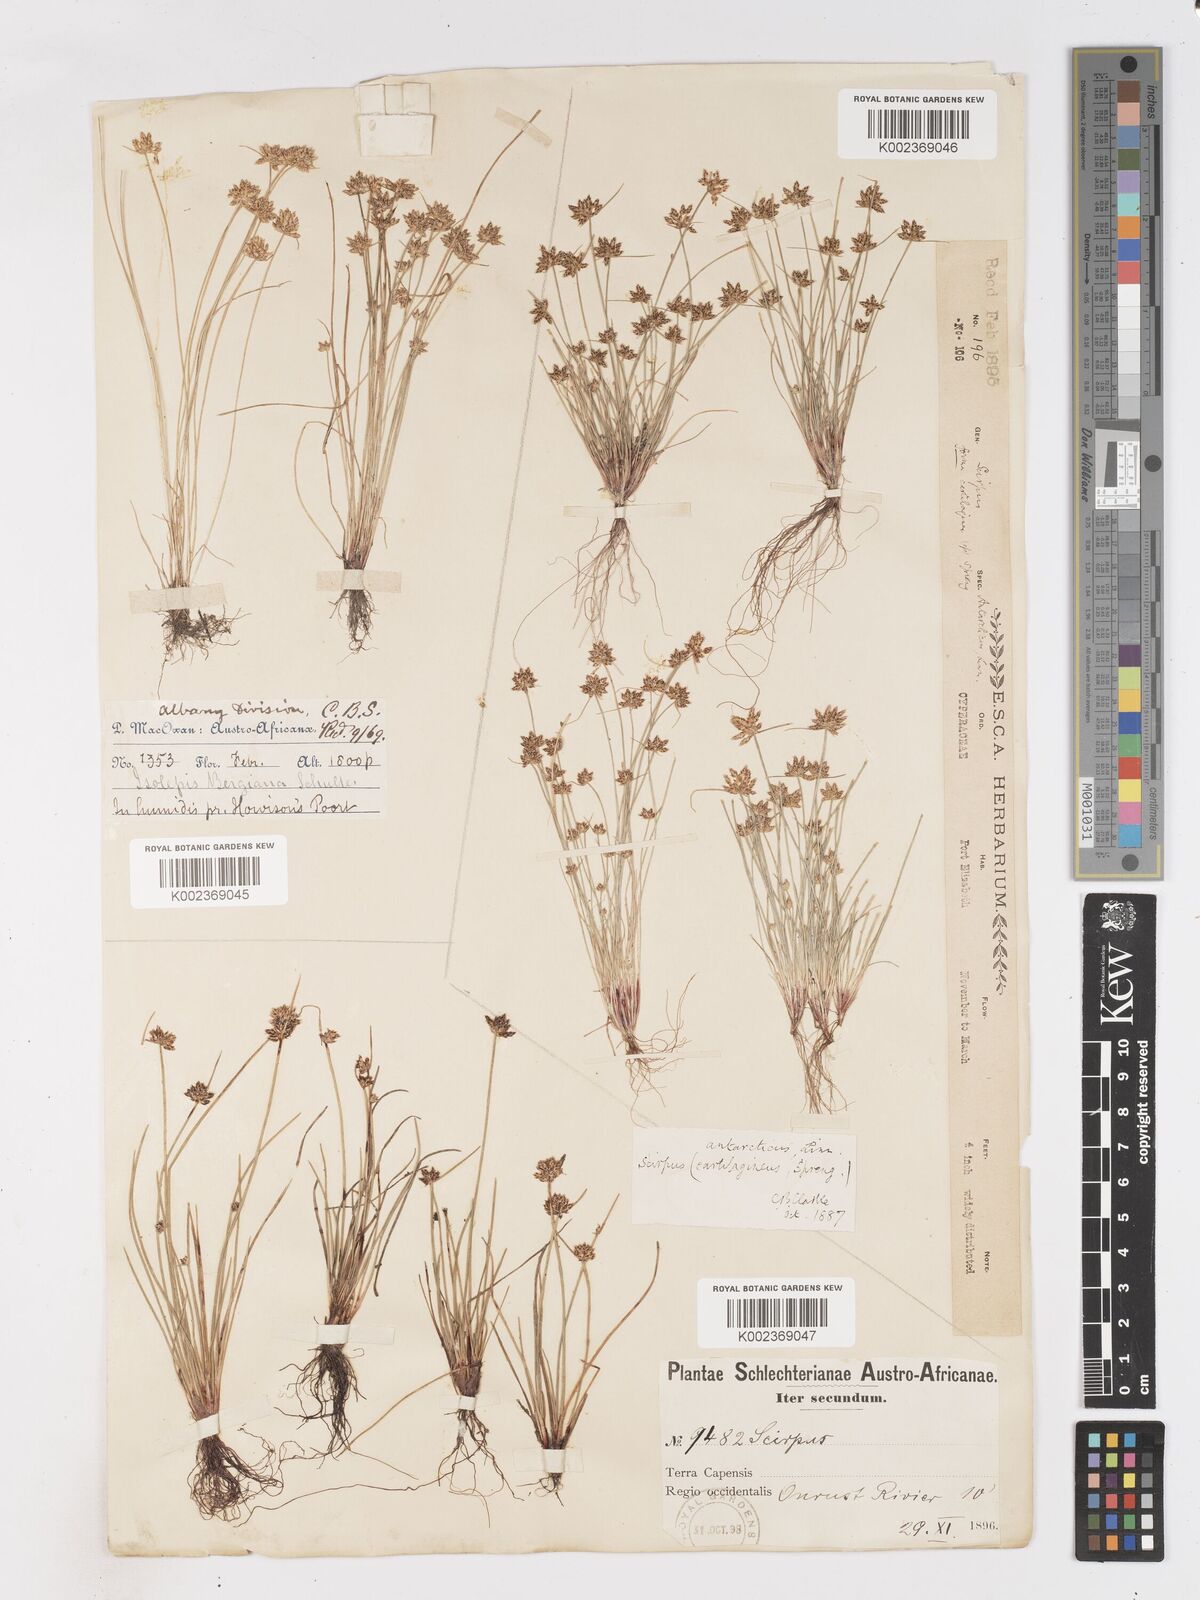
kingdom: Plantae
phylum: Tracheophyta
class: Liliopsida
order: Poales
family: Cyperaceae
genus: Isolepis
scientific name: Isolepis diabolica
